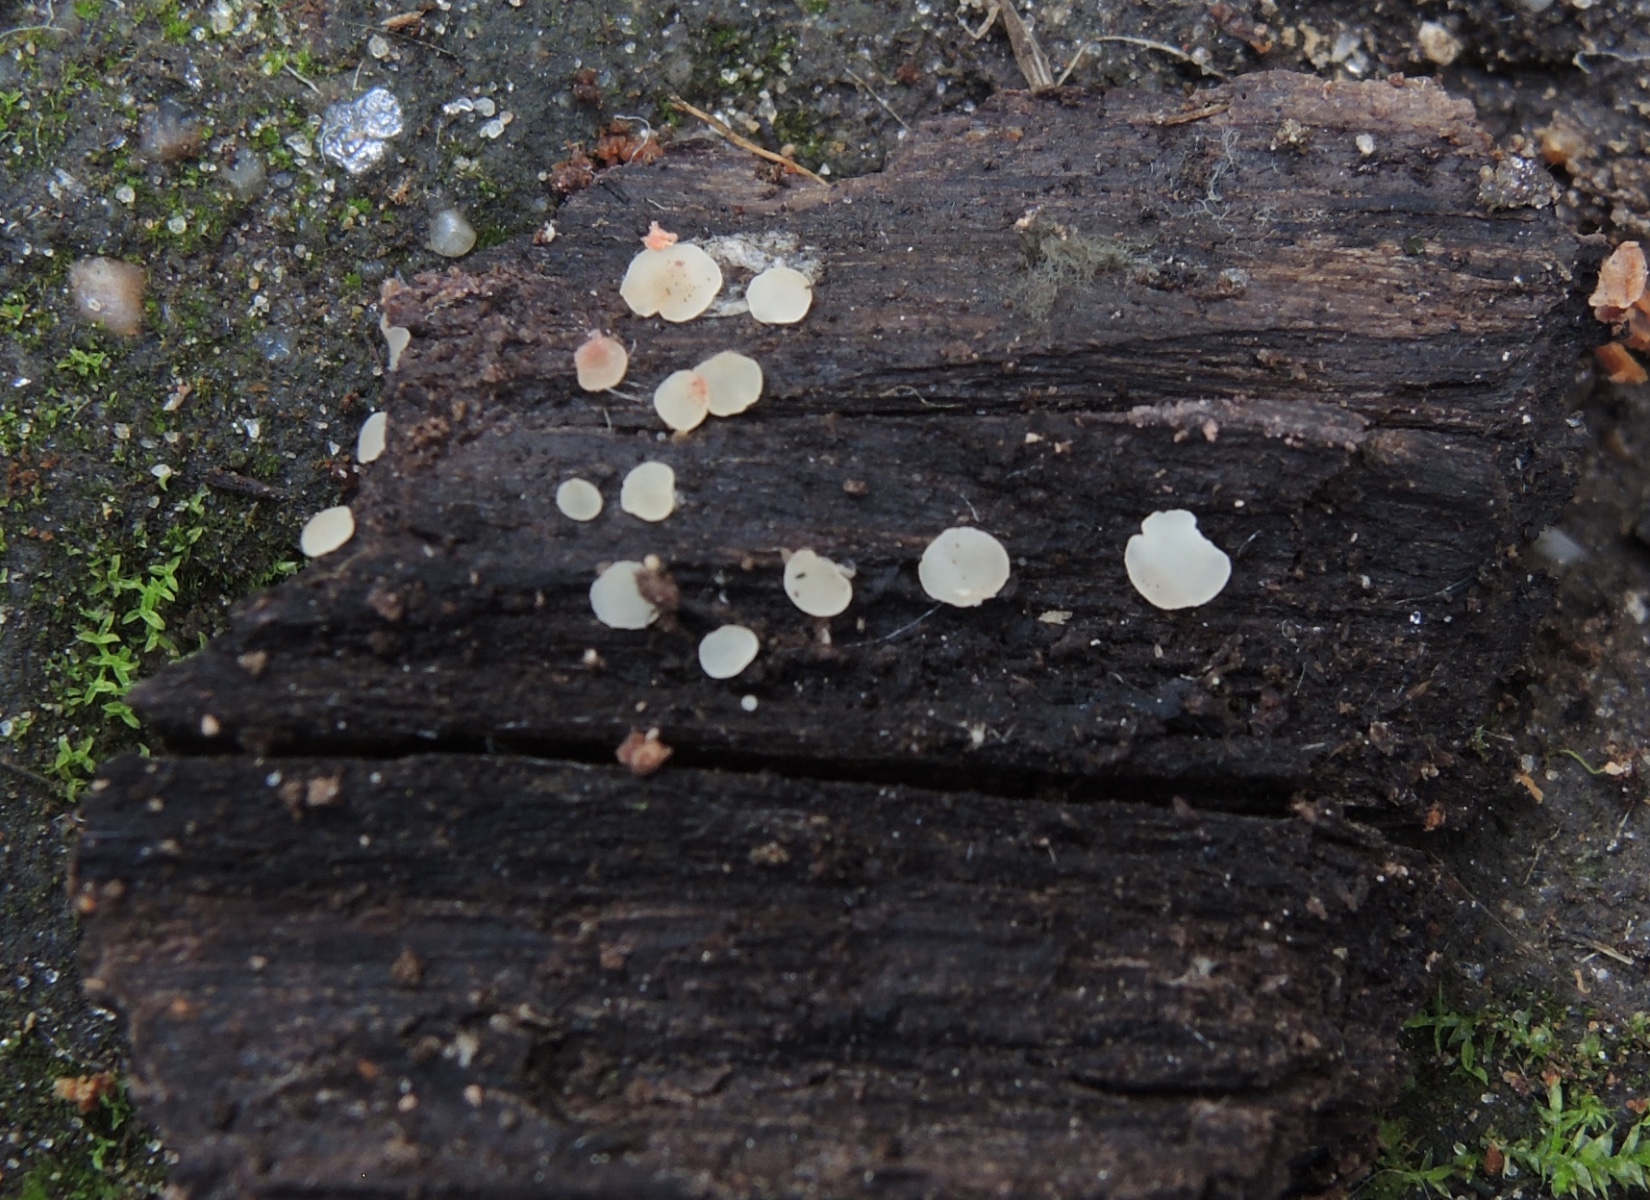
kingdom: Fungi
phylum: Ascomycota
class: Leotiomycetes
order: Helotiales
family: Helotiaceae
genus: Hymenoscyphus
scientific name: Hymenoscyphus imberbis
